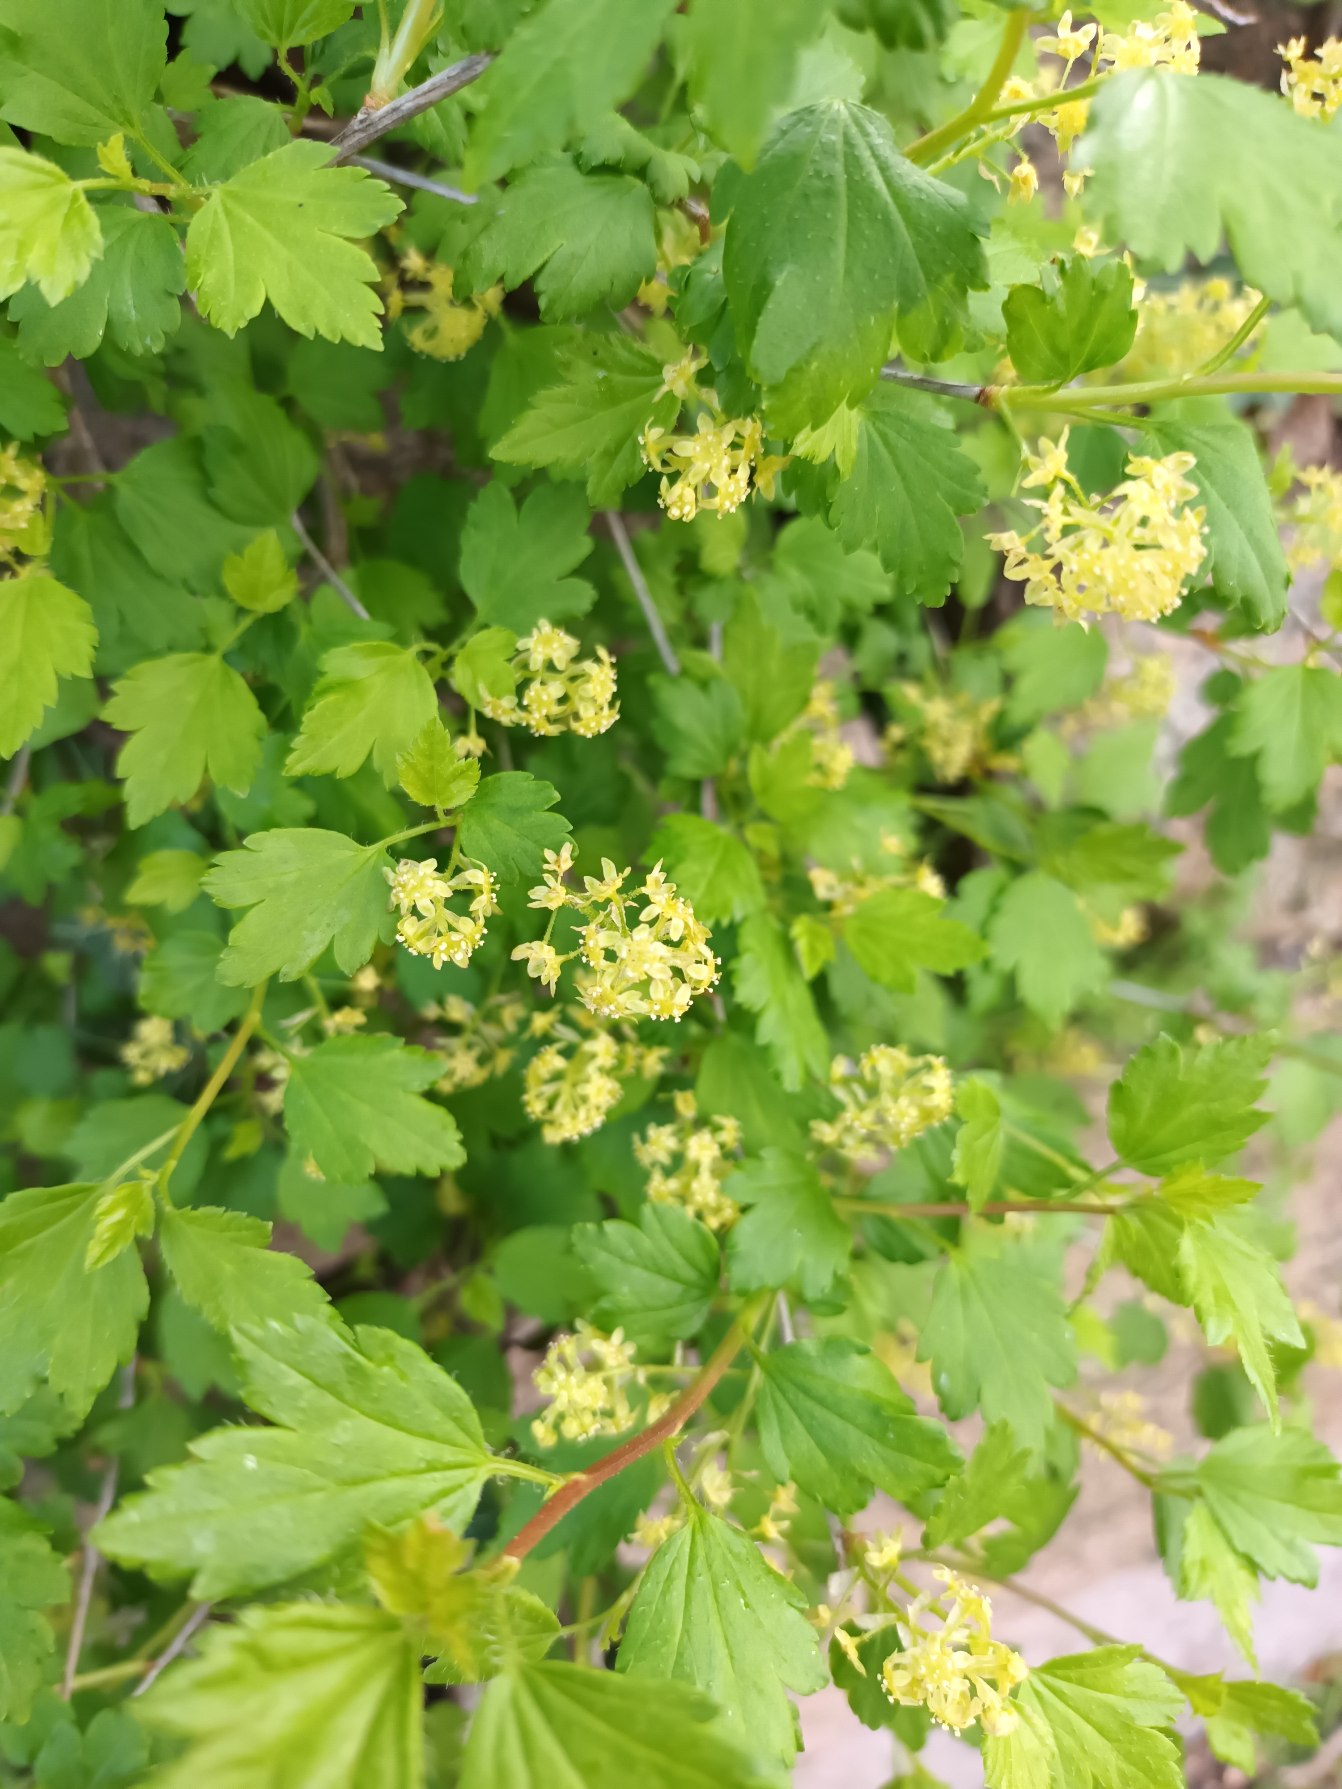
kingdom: Plantae
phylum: Tracheophyta
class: Magnoliopsida
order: Saxifragales
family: Grossulariaceae
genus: Ribes
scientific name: Ribes alpinum
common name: Fjeld-ribs
